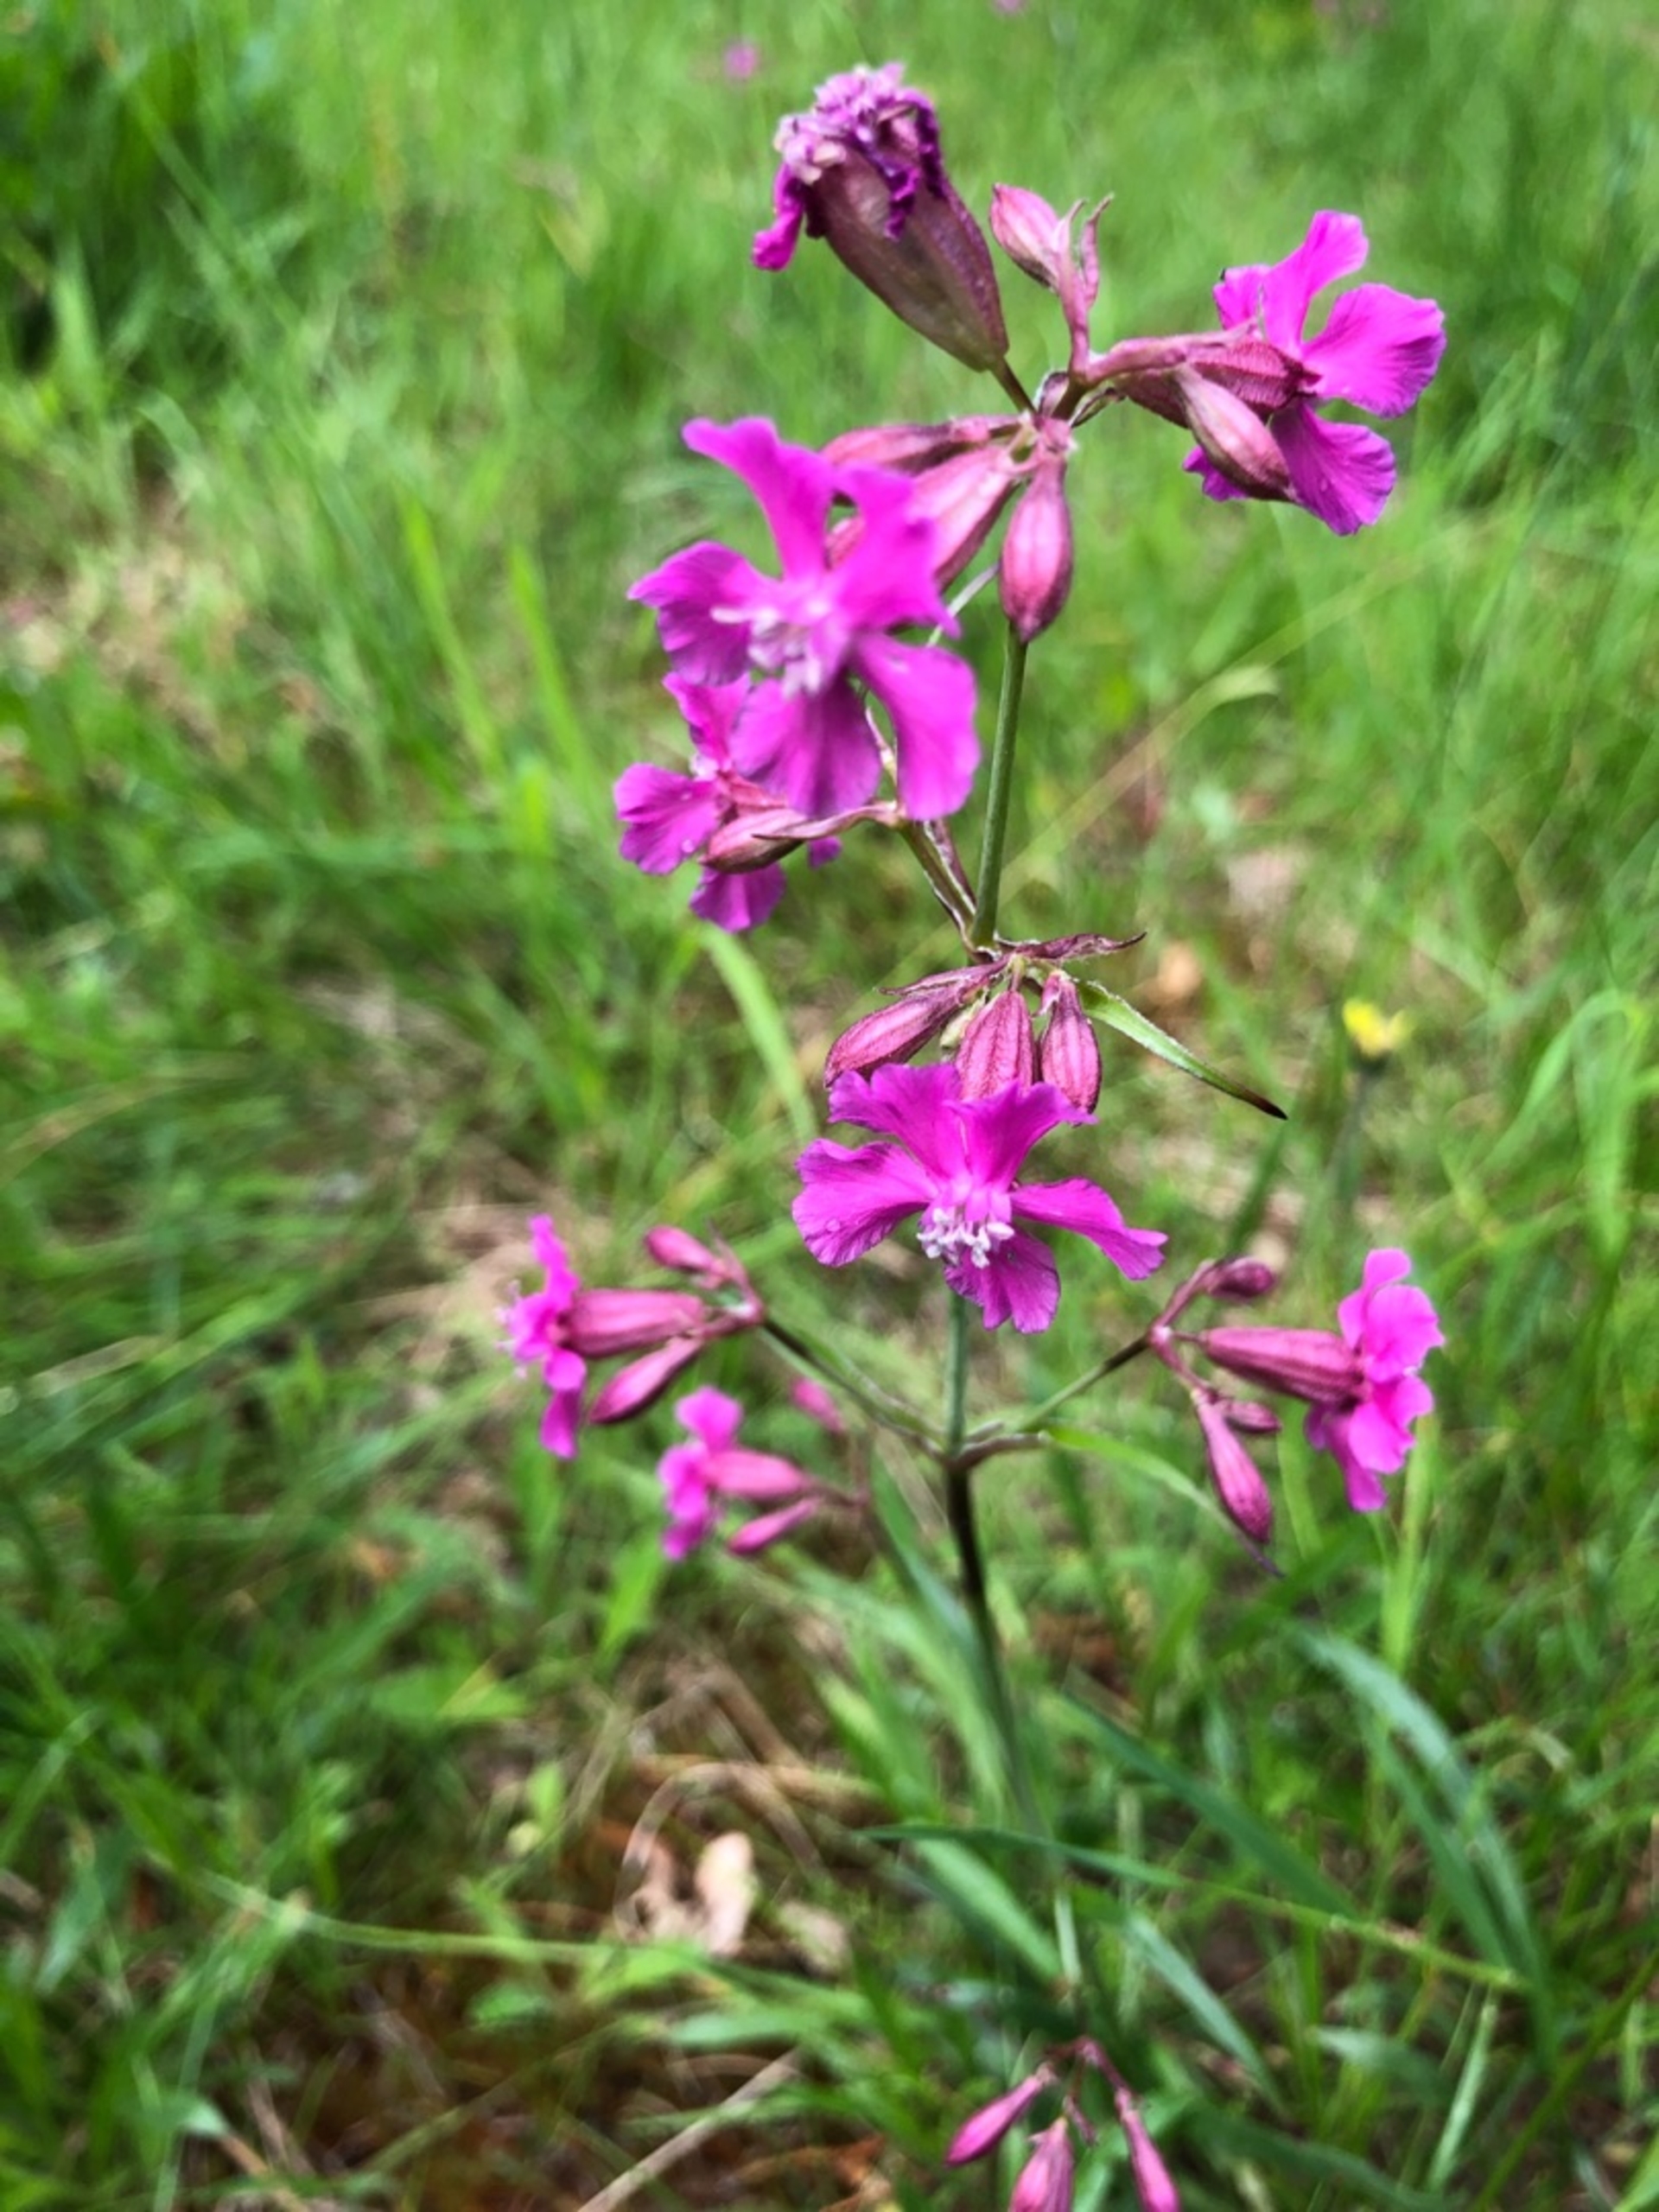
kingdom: Plantae
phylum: Tracheophyta
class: Magnoliopsida
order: Caryophyllales
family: Caryophyllaceae
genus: Viscaria
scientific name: Viscaria vulgaris
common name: Tjærenellike
